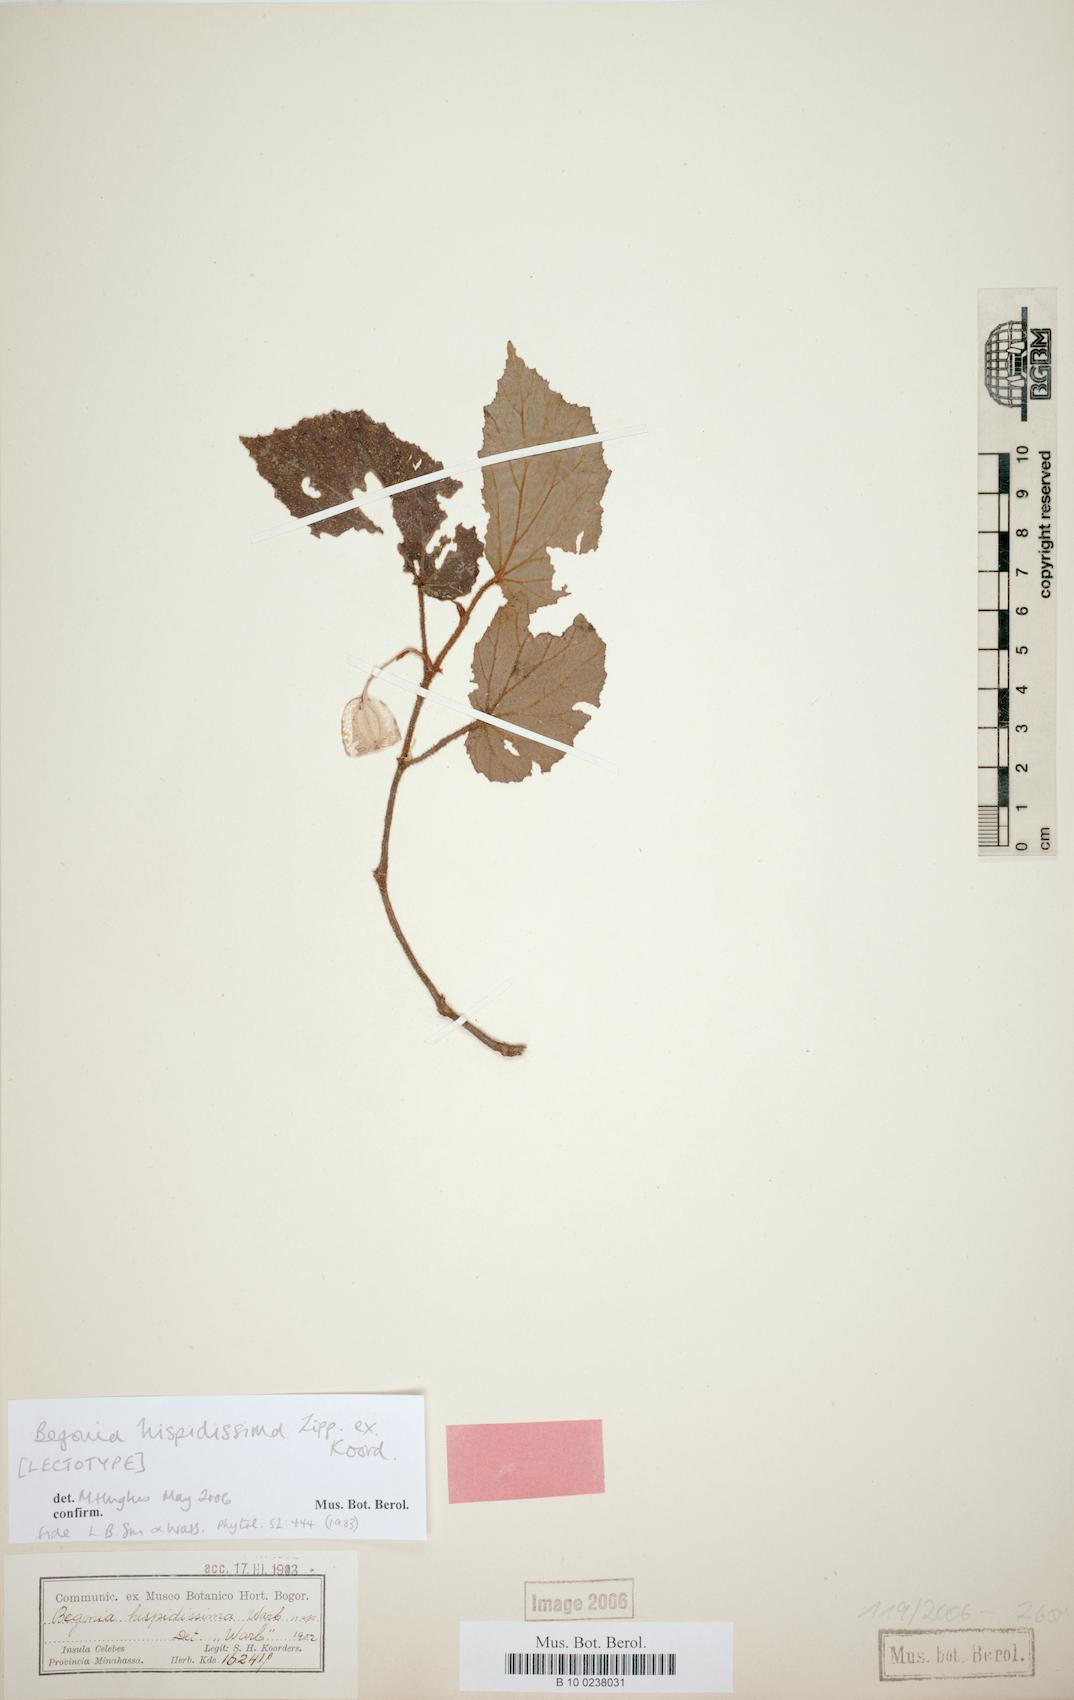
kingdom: Plantae
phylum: Tracheophyta
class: Magnoliopsida
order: Cucurbitales
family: Begoniaceae
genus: Begonia
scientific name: Begonia hispidissima
